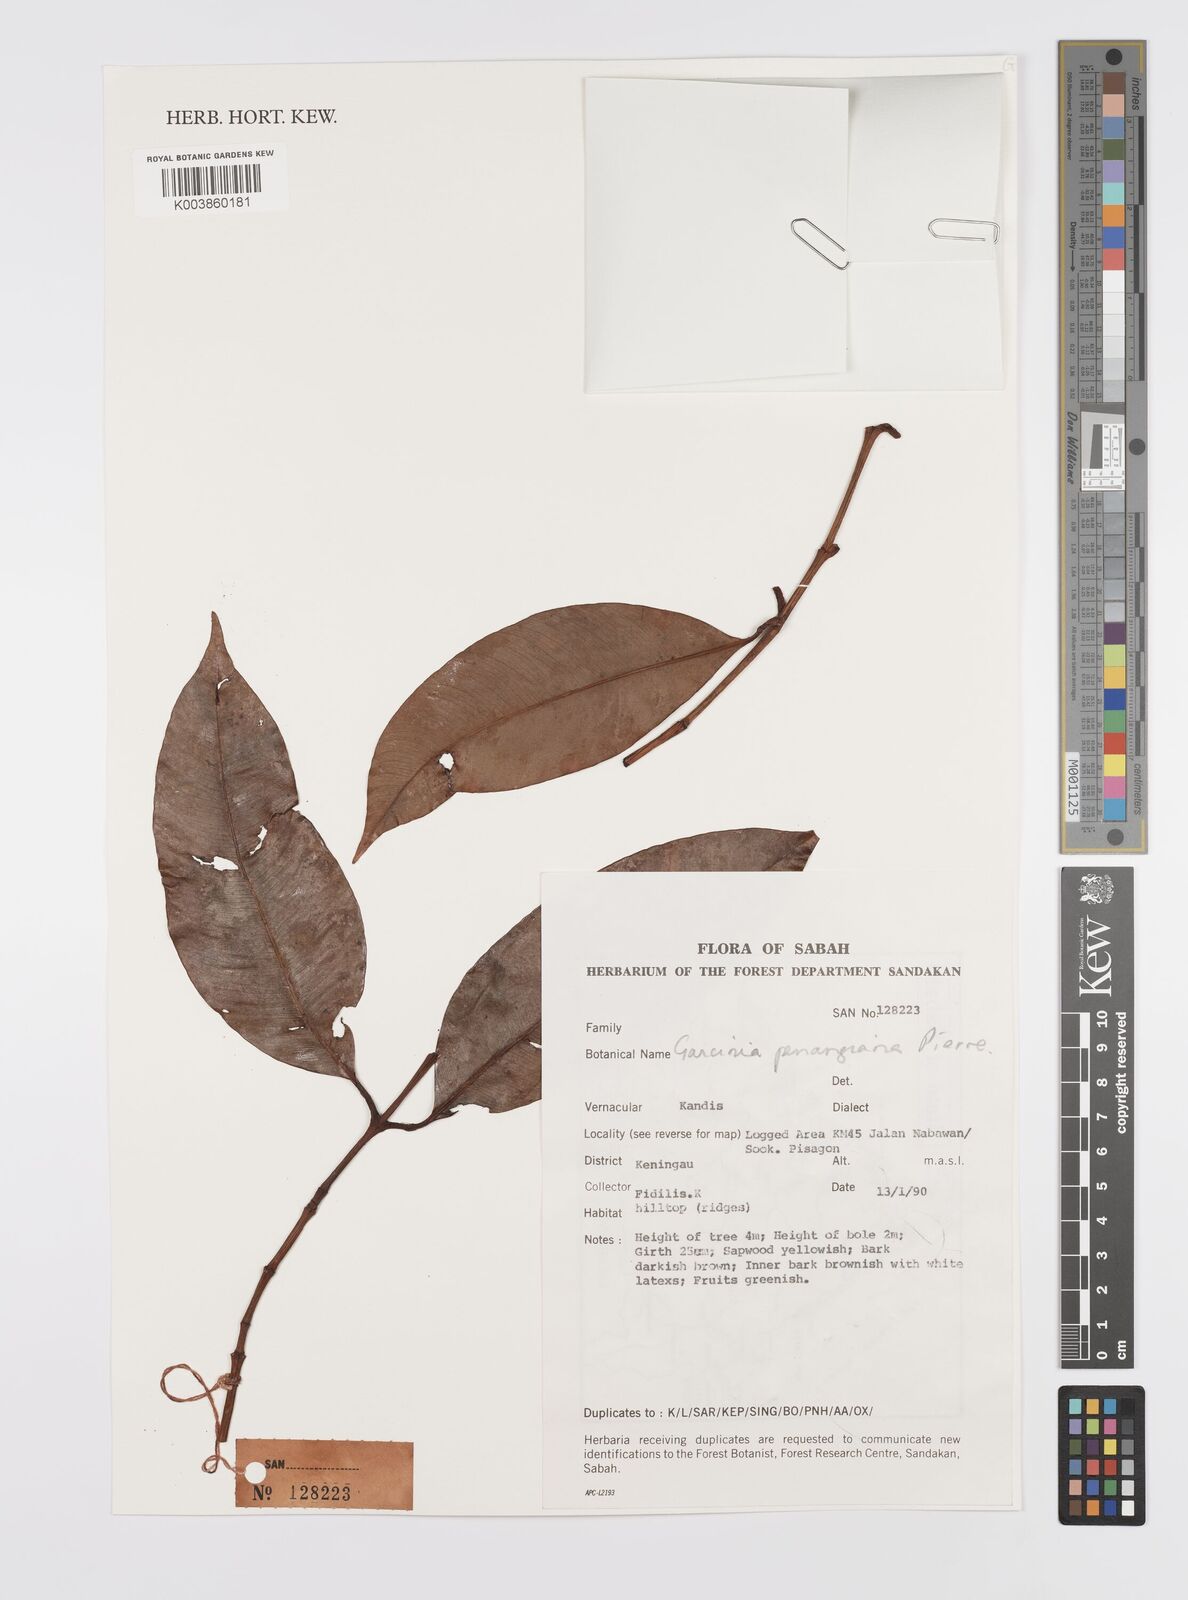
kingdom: Plantae
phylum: Tracheophyta
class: Magnoliopsida
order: Malpighiales
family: Clusiaceae
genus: Garcinia
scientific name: Garcinia penangiana
